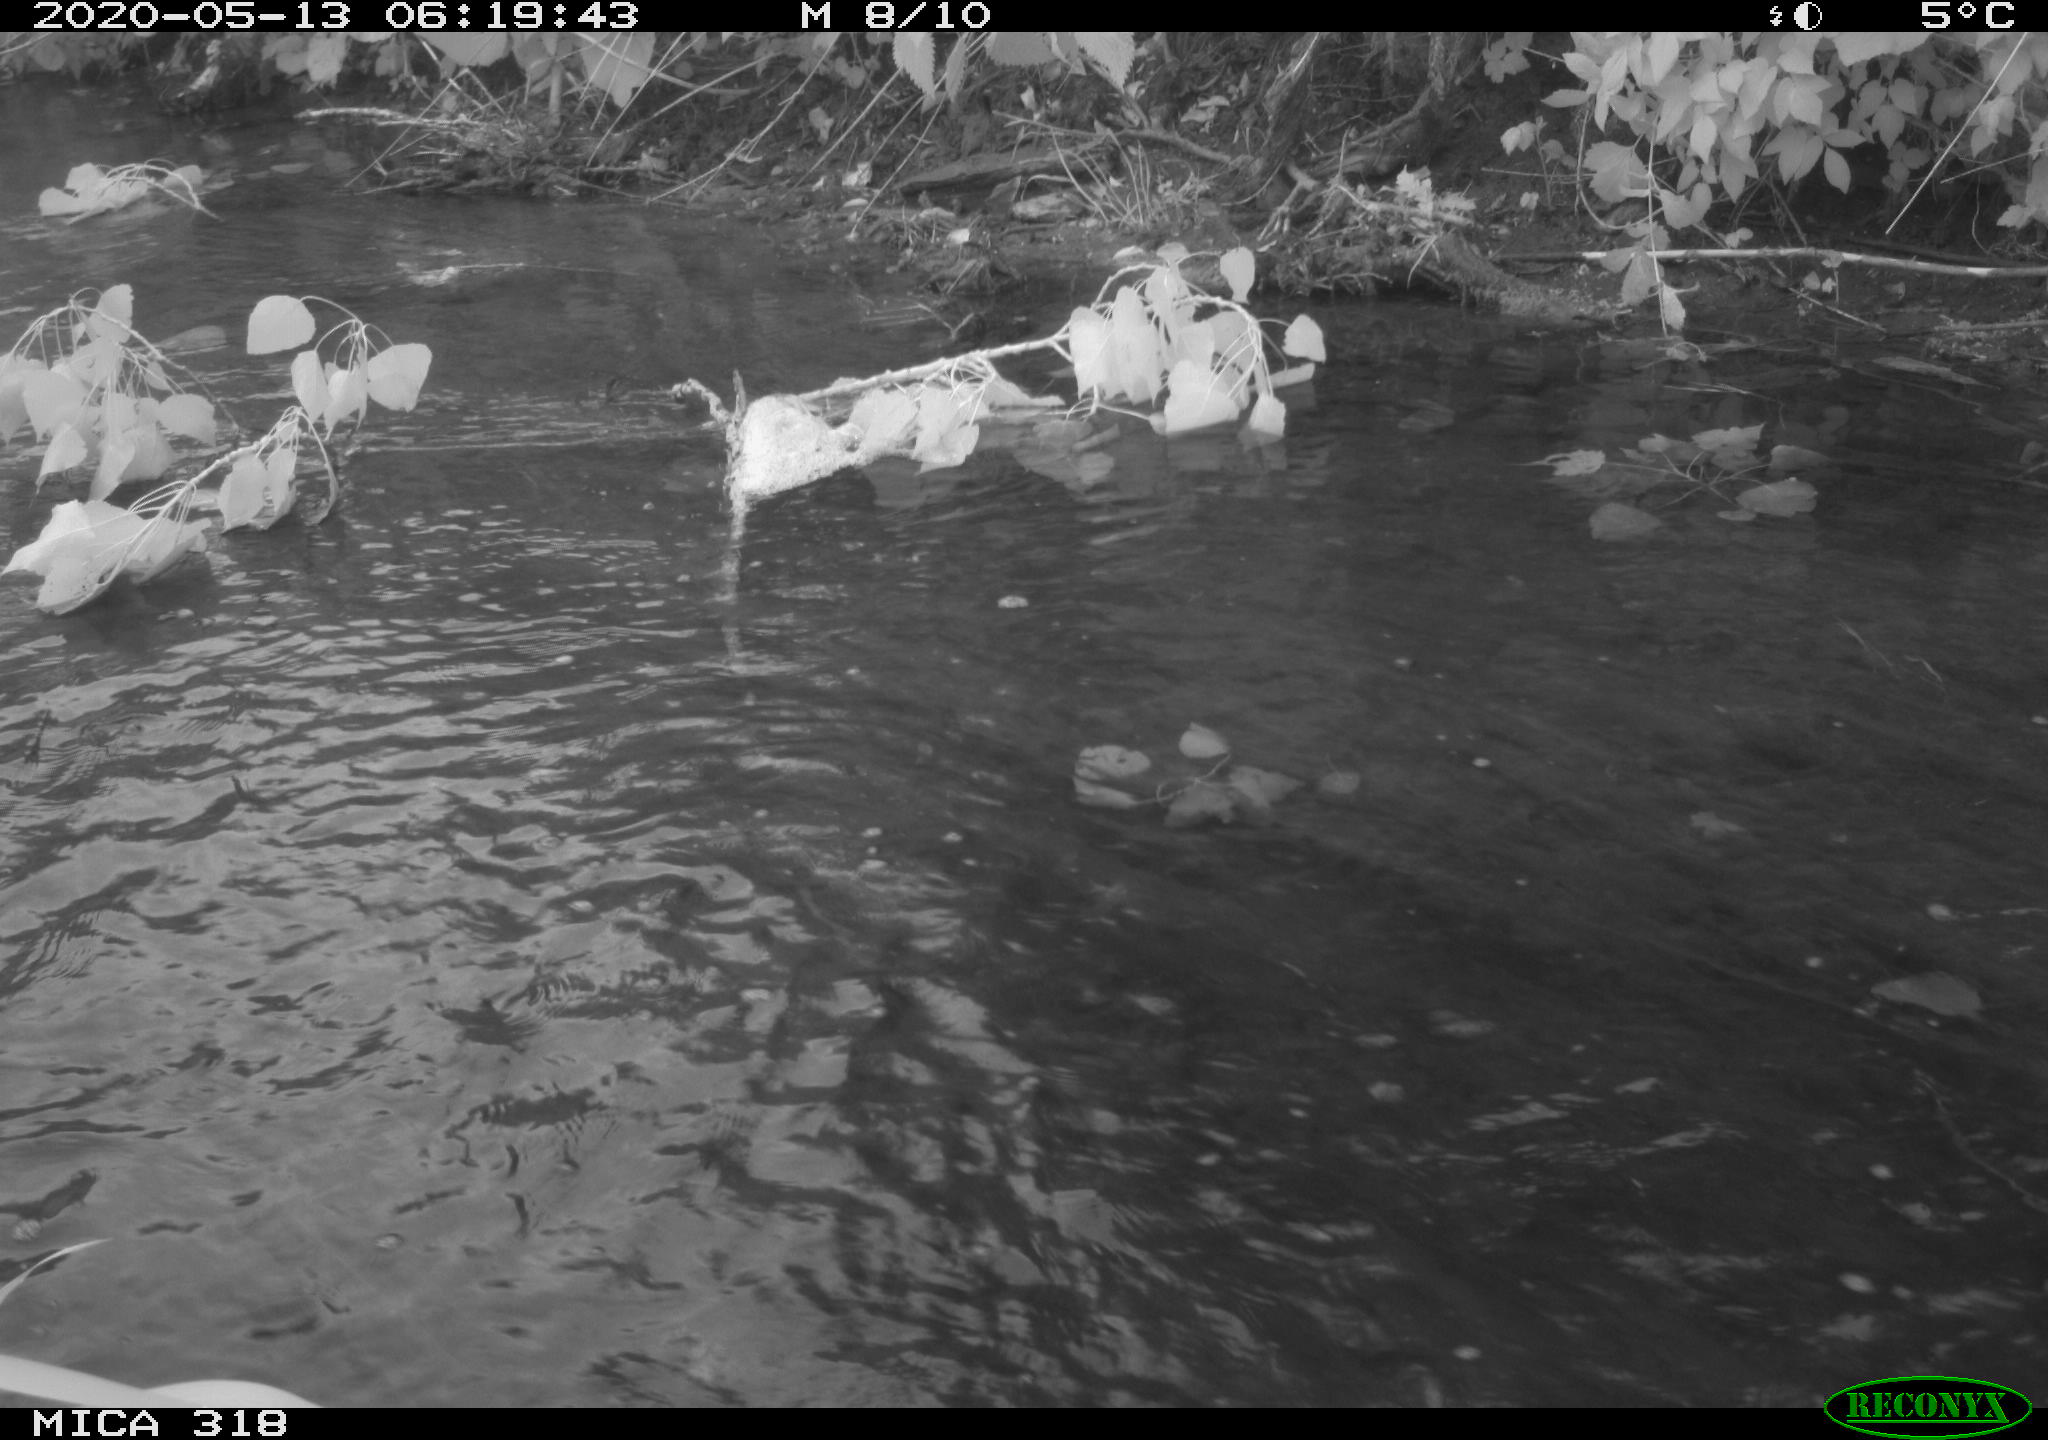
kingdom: Animalia
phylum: Chordata
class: Aves
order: Gruiformes
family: Rallidae
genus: Gallinula
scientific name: Gallinula chloropus
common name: Common moorhen
